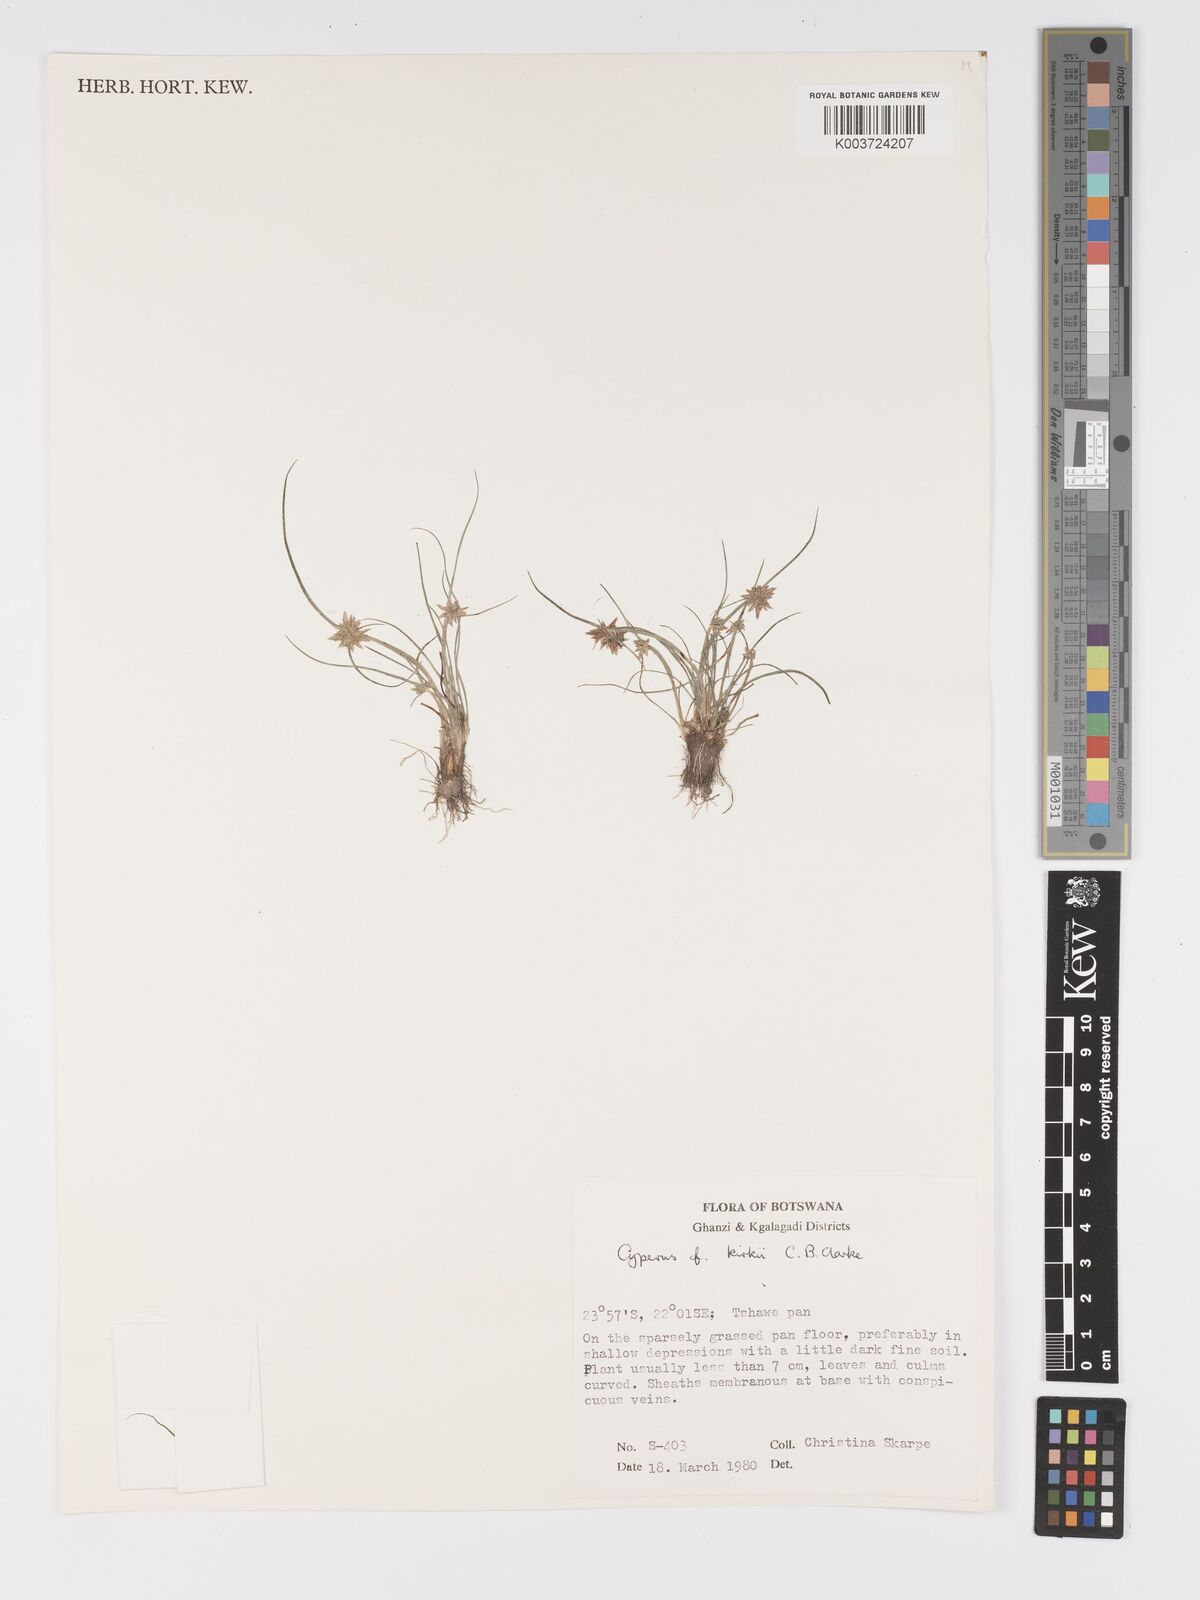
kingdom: Plantae
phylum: Tracheophyta
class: Liliopsida
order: Poales
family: Cyperaceae
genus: Cyperus
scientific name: Cyperus semitrifidus
